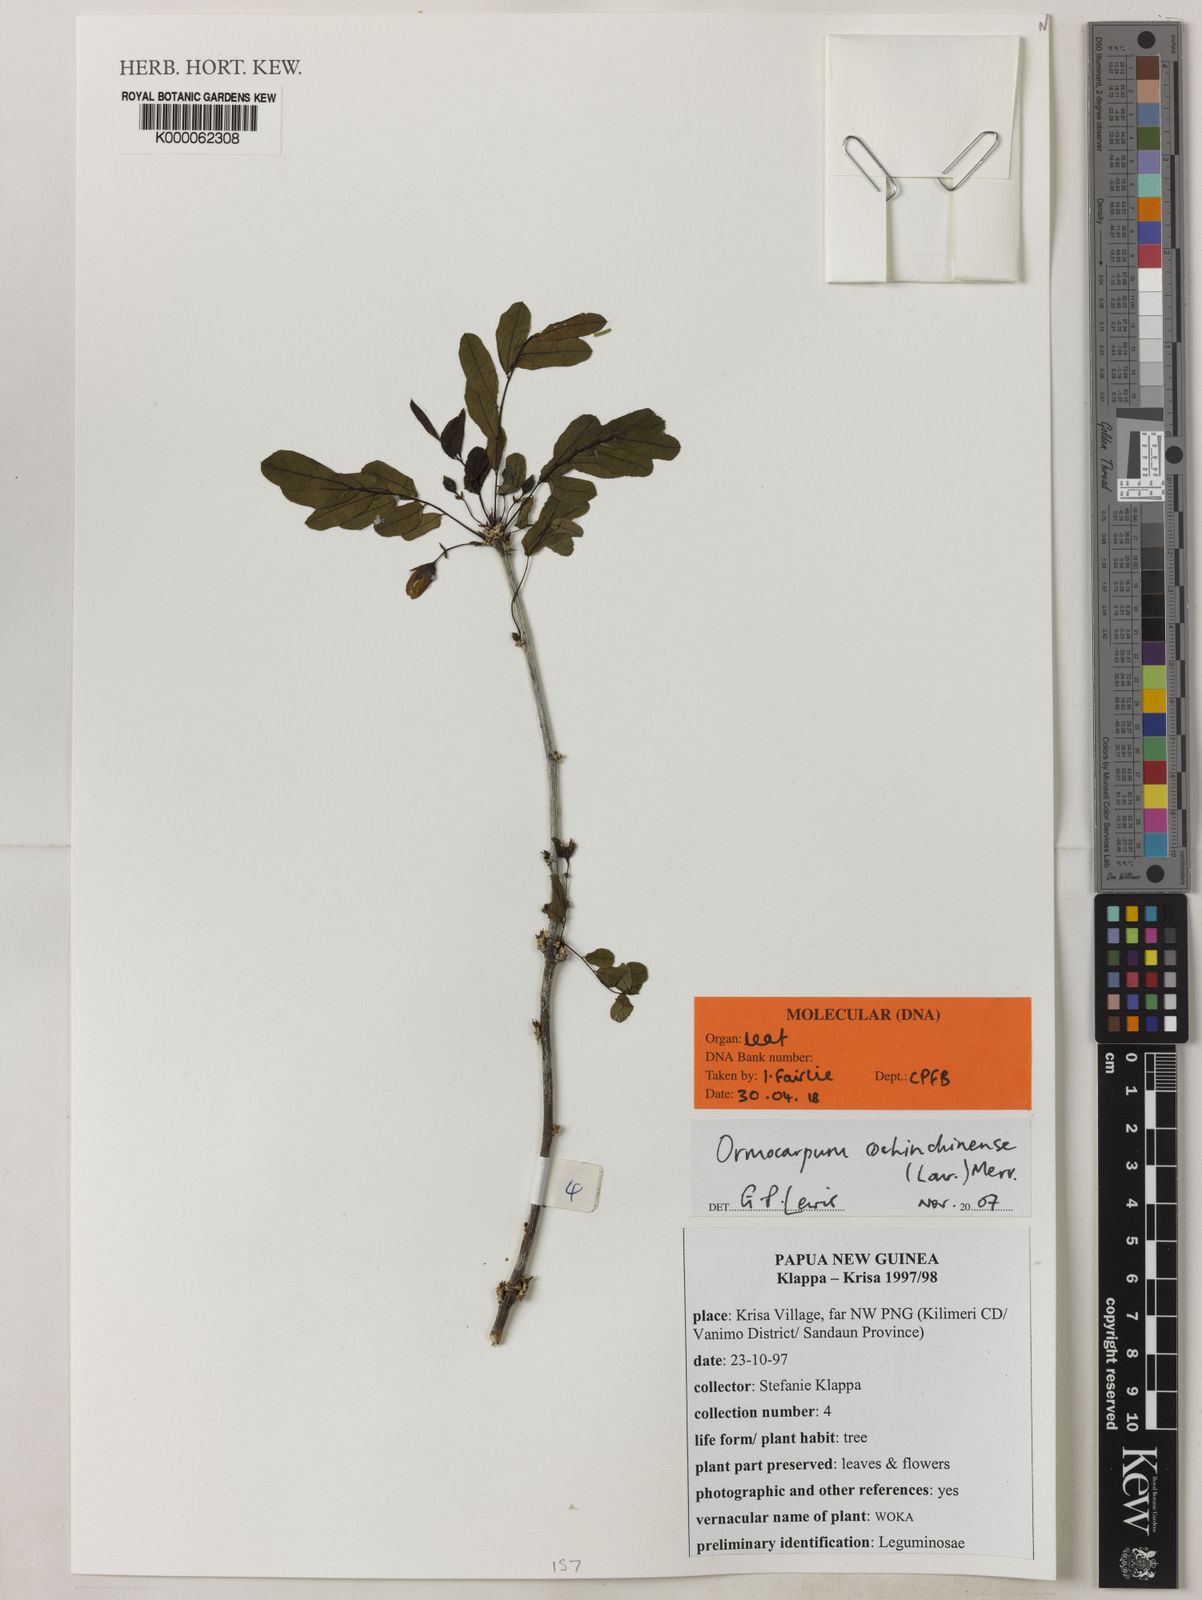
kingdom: Plantae
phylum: Tracheophyta
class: Magnoliopsida
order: Fabales
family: Fabaceae
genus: Ormocarpum
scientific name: Ormocarpum cochinchinense
